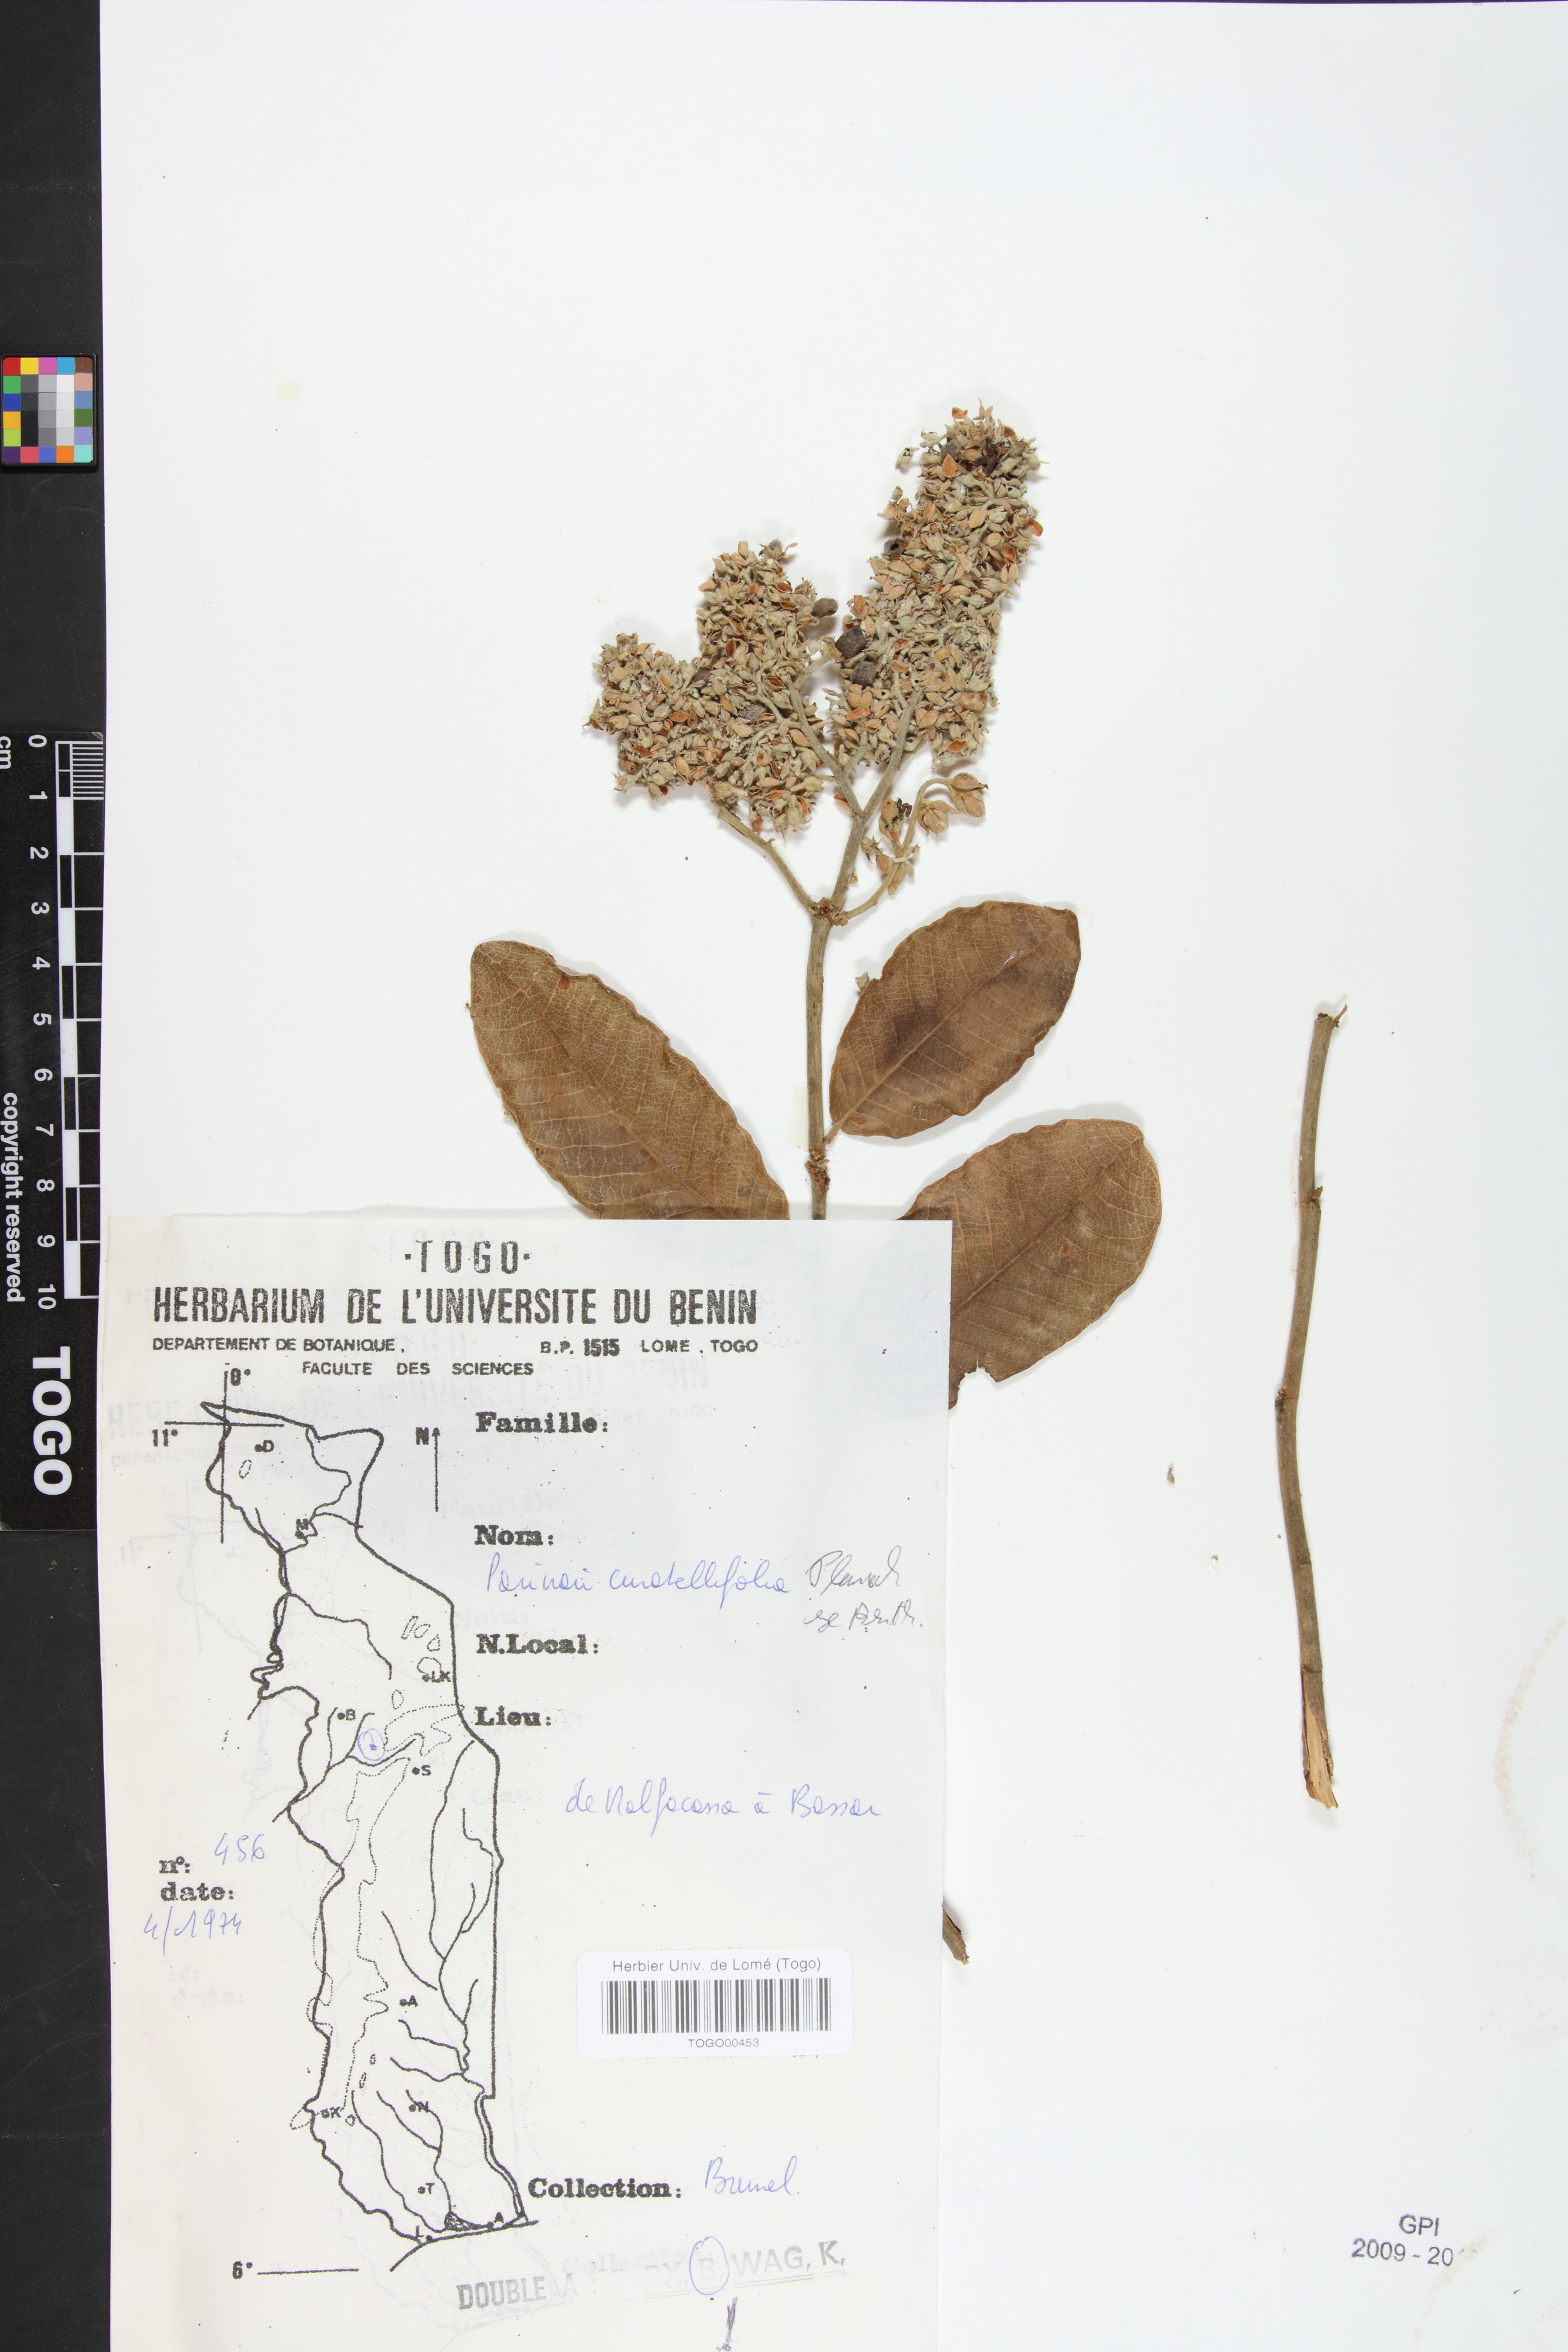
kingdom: Plantae
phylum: Tracheophyta
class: Magnoliopsida
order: Malpighiales
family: Chrysobalanaceae
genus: Parinari
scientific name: Parinari curatellifolia
